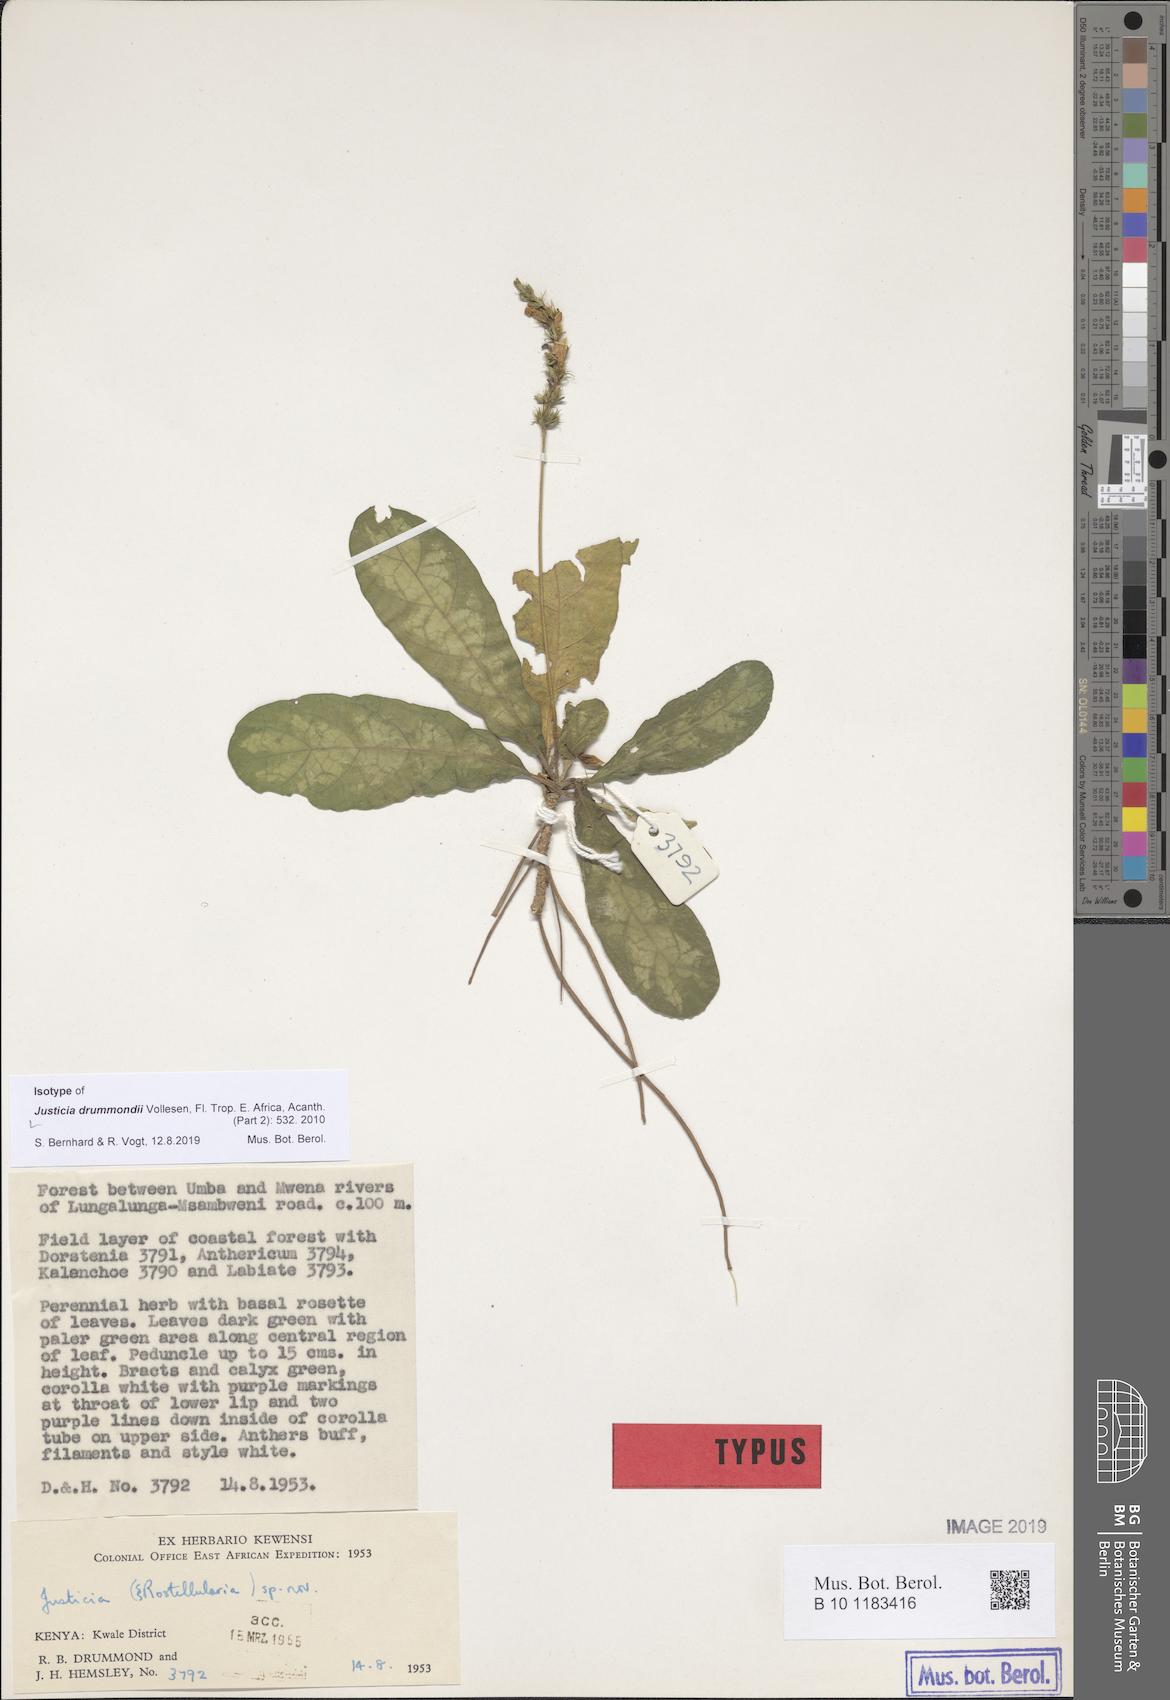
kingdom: Plantae
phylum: Tracheophyta
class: Magnoliopsida
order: Lamiales
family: Acanthaceae
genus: Justicia
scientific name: Justicia drummondii
